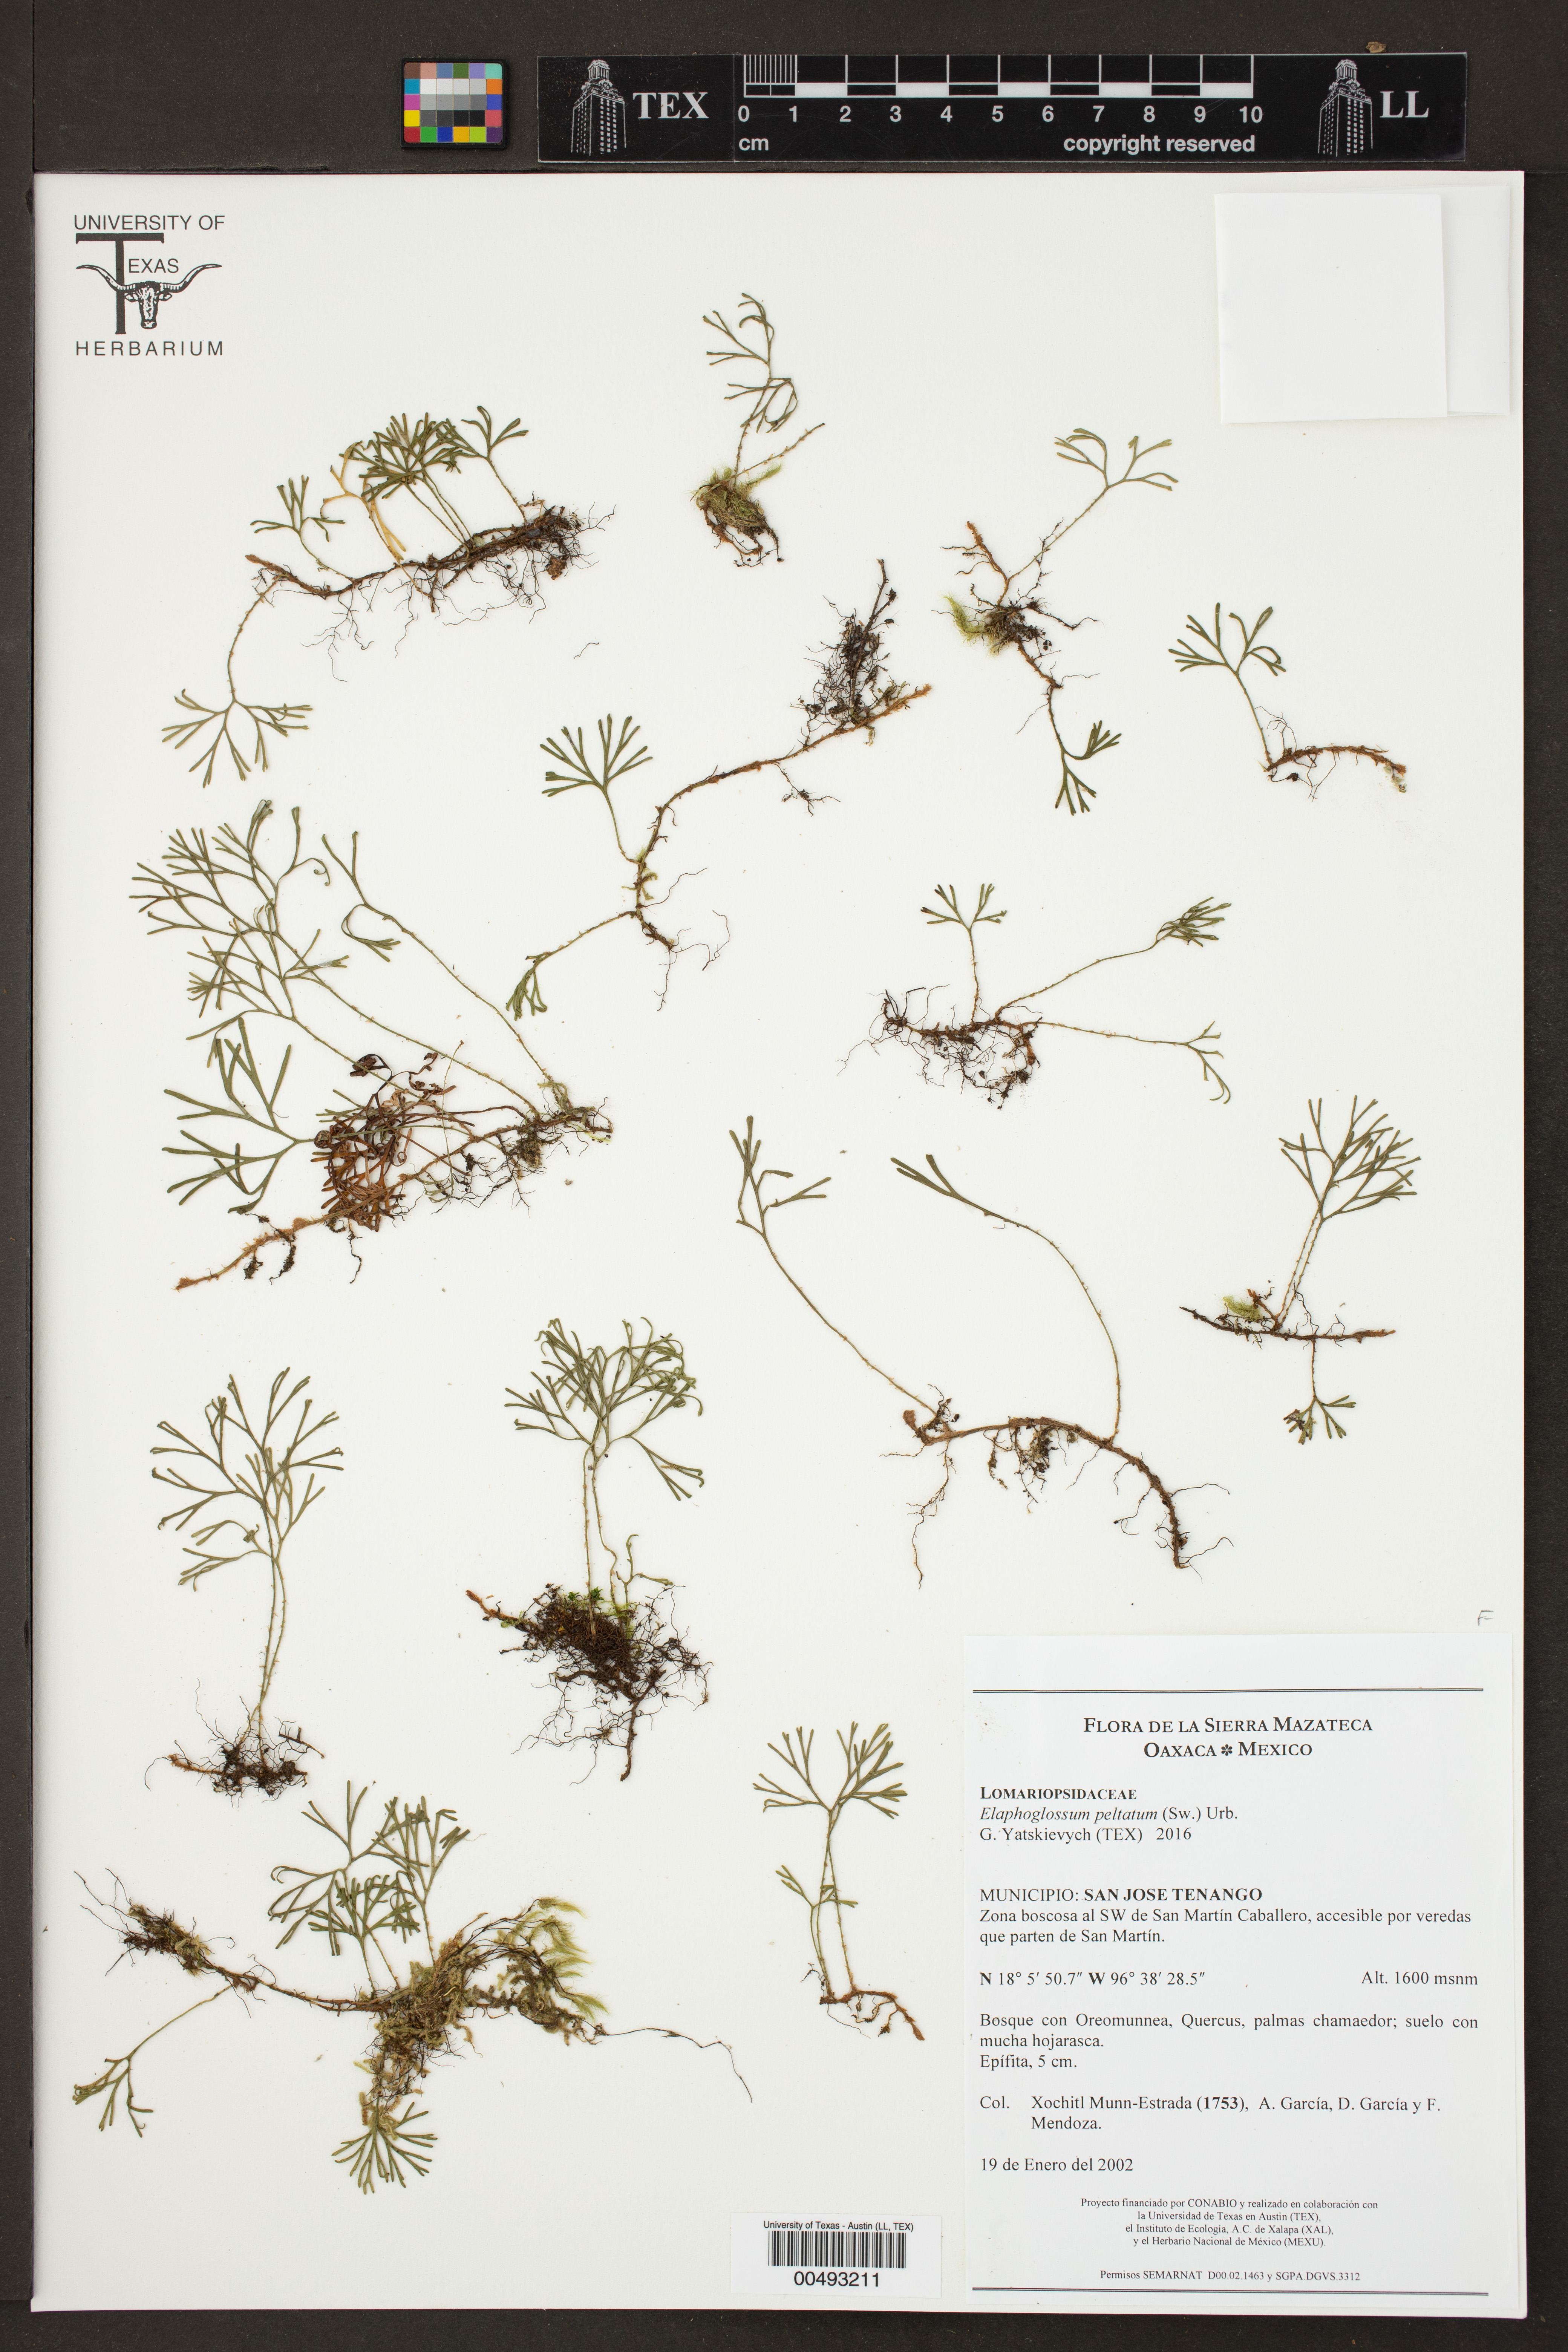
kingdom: Plantae
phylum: Tracheophyta
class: Polypodiopsida
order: Polypodiales
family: Dryopteridaceae
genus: Elaphoglossum
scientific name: Elaphoglossum peltatum
